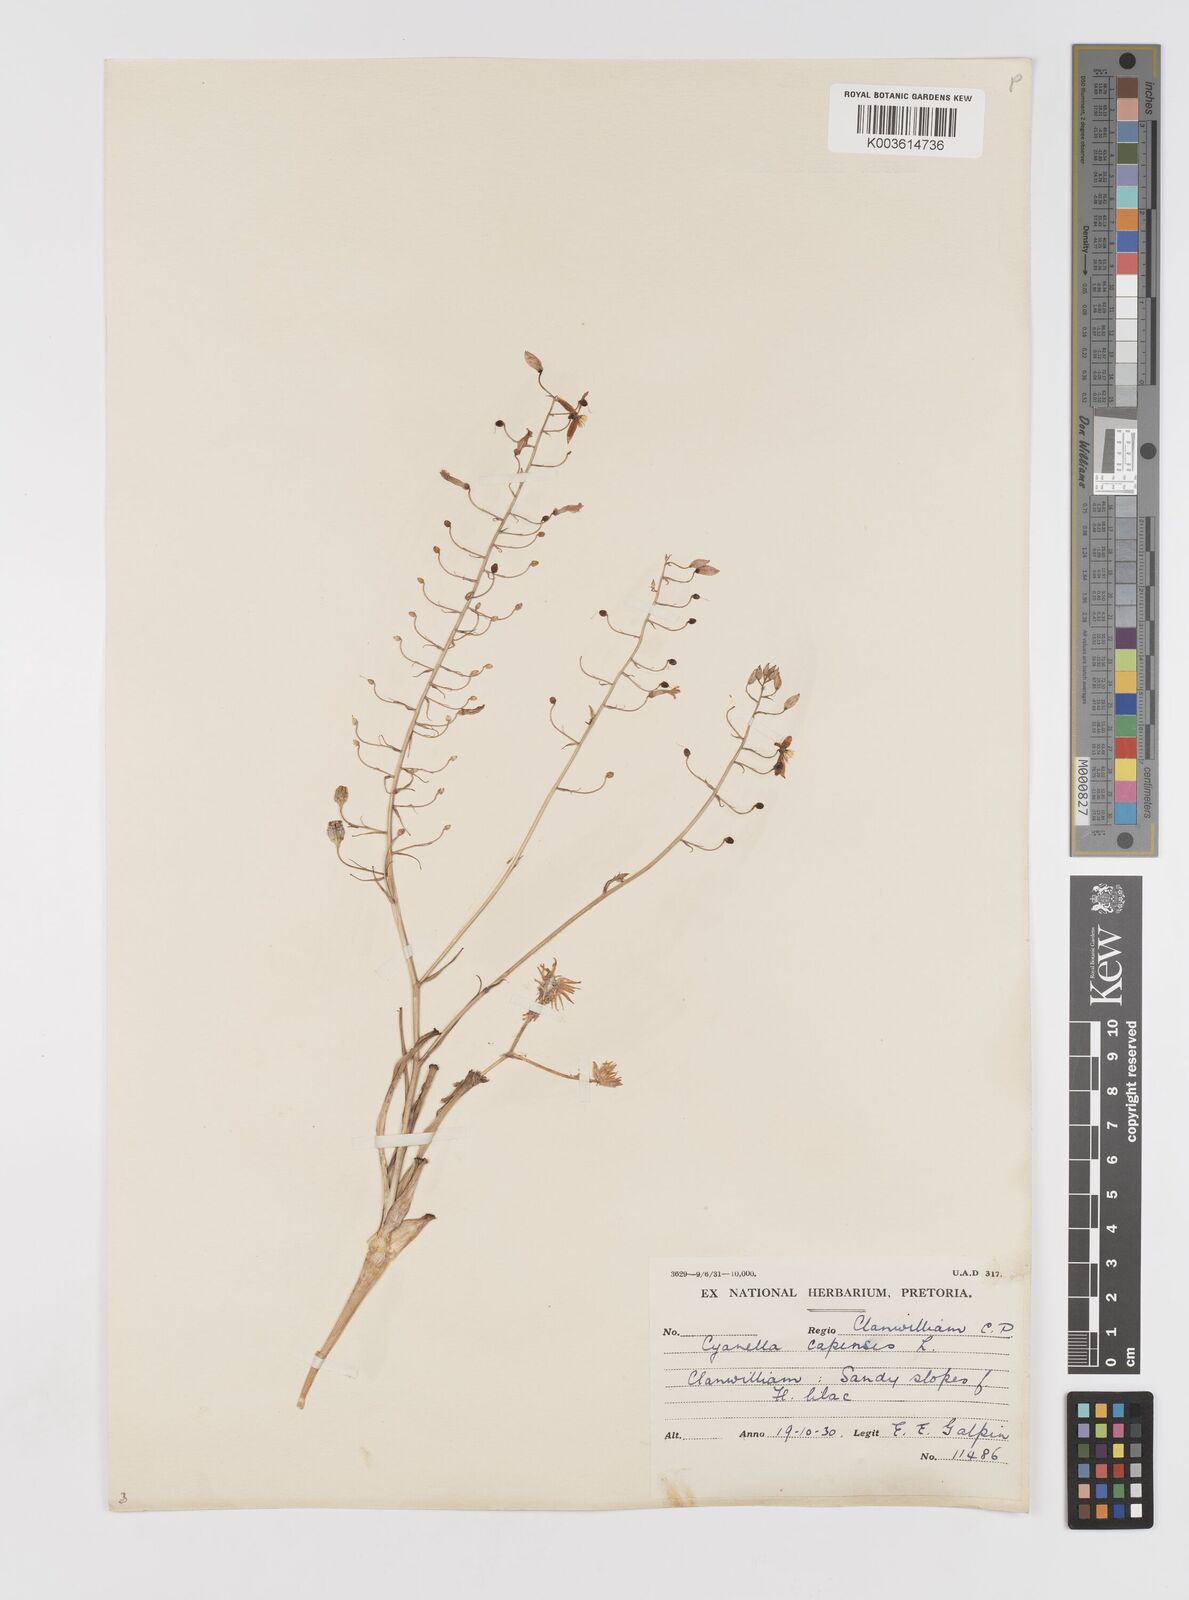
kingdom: Plantae
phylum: Tracheophyta
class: Liliopsida
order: Asparagales
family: Tecophilaeaceae
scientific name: Tecophilaeaceae
